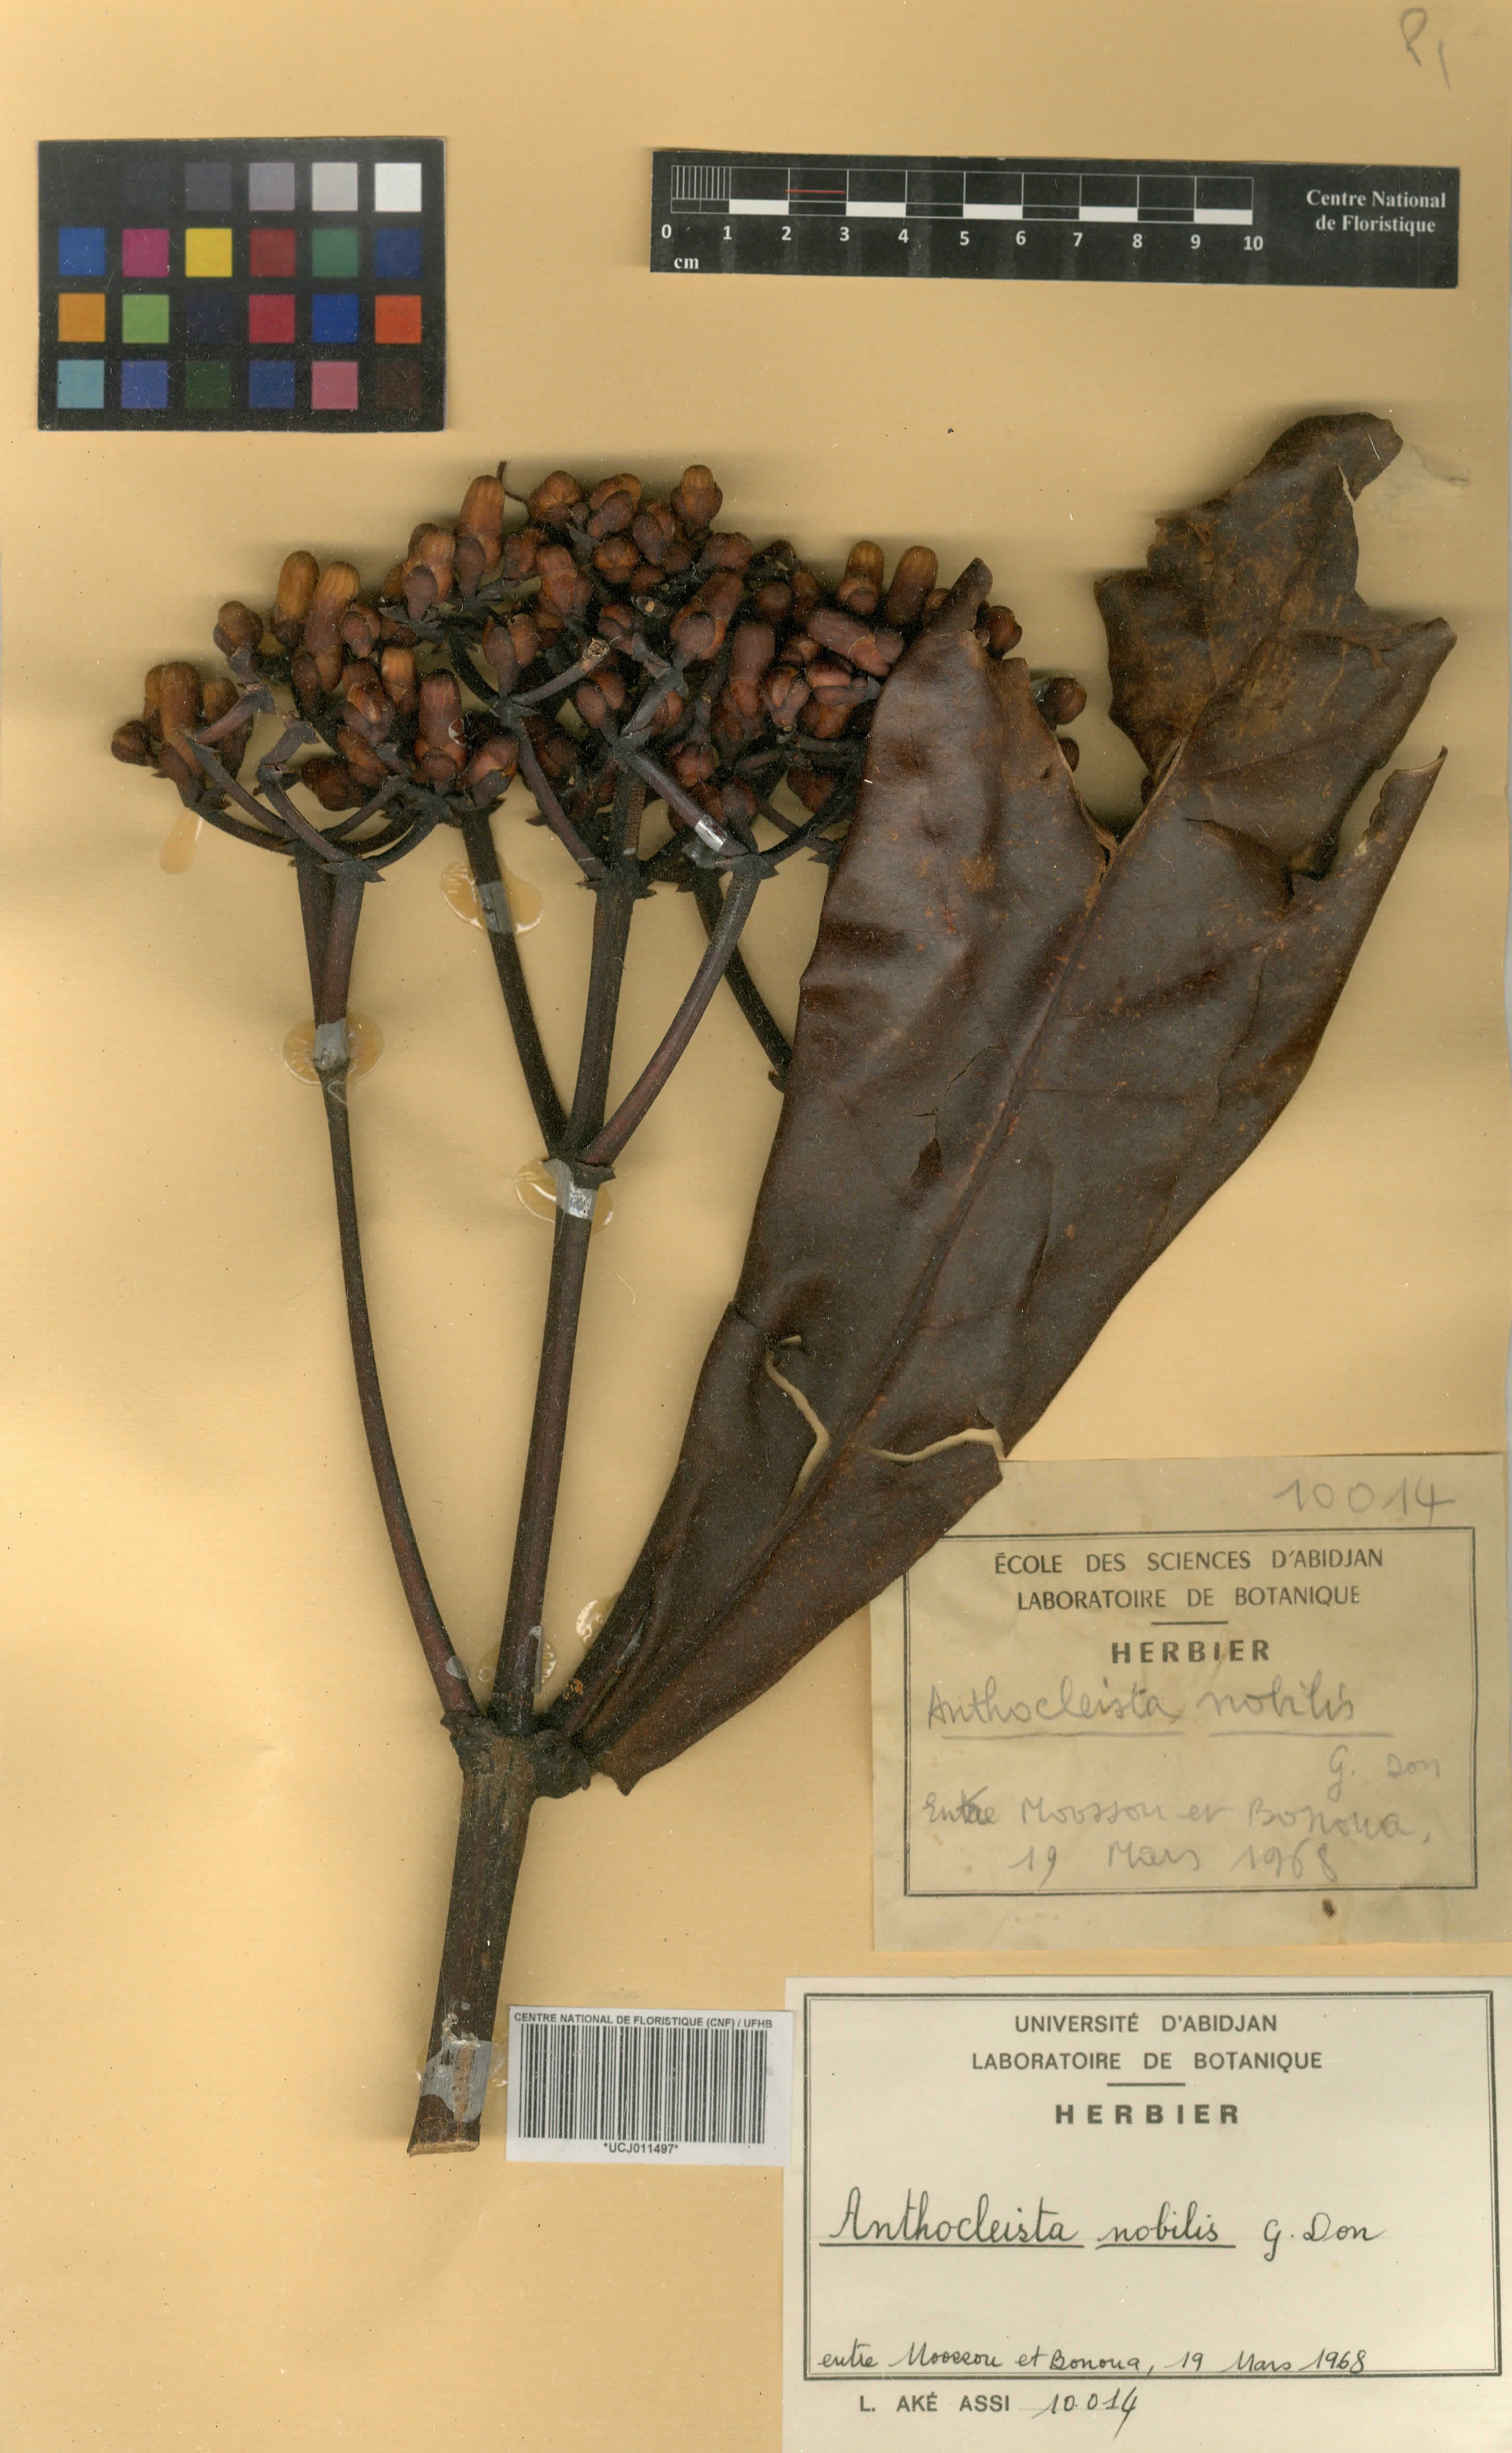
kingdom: Plantae
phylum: Tracheophyta
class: Magnoliopsida
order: Gentianales
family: Gentianaceae
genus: Anthocleista
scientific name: Anthocleista nobilis
